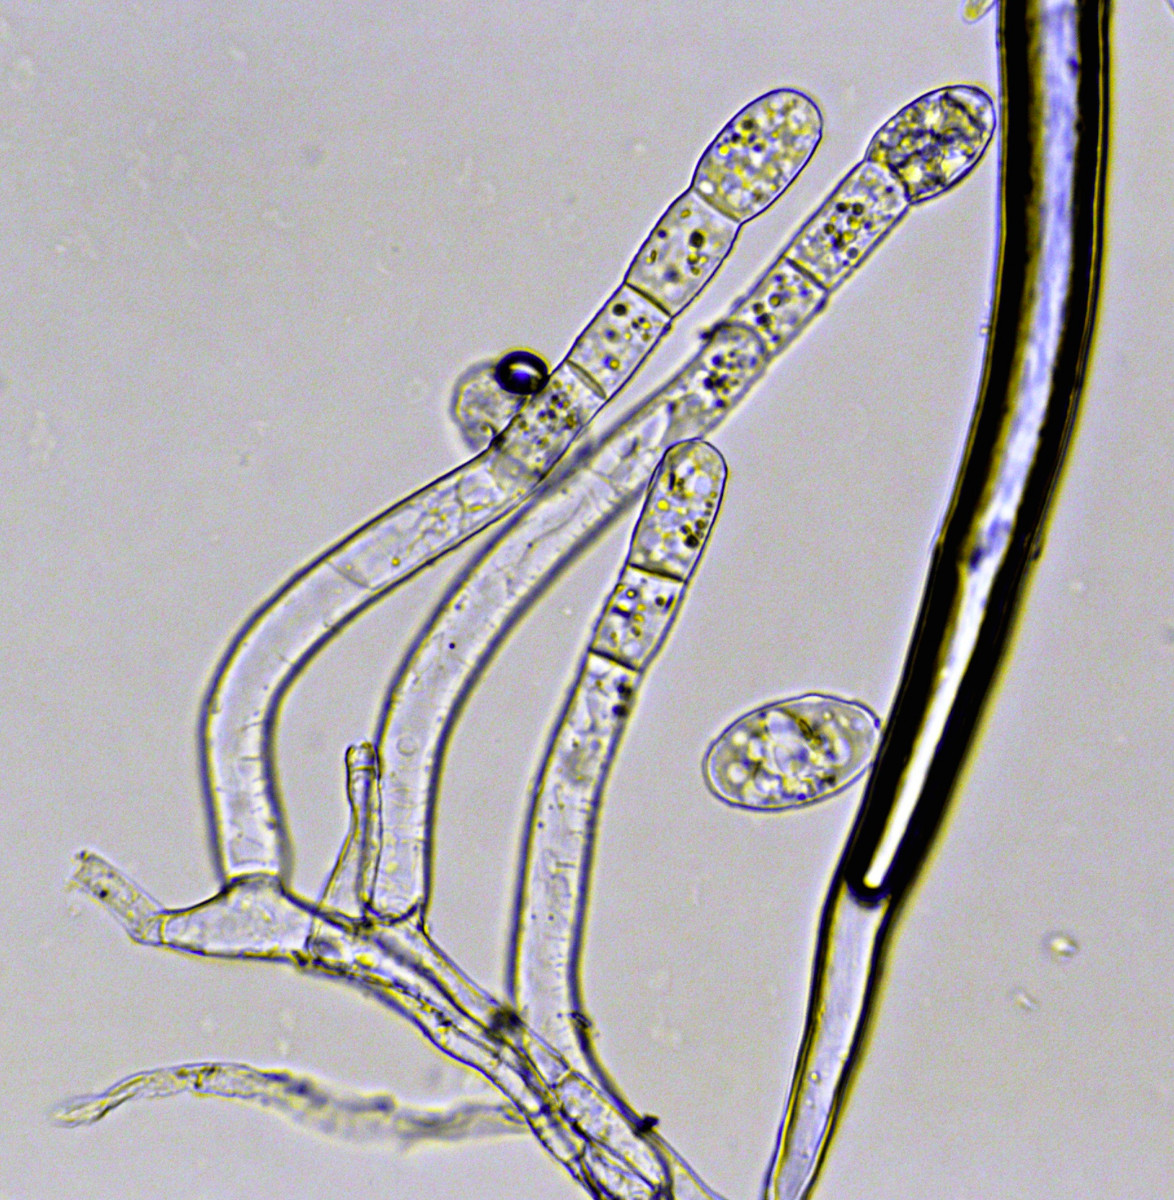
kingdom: Fungi
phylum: Ascomycota
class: Leotiomycetes
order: Helotiales
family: Erysiphaceae
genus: Podosphaera
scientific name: Podosphaera leucotricha
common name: æble-meldug
